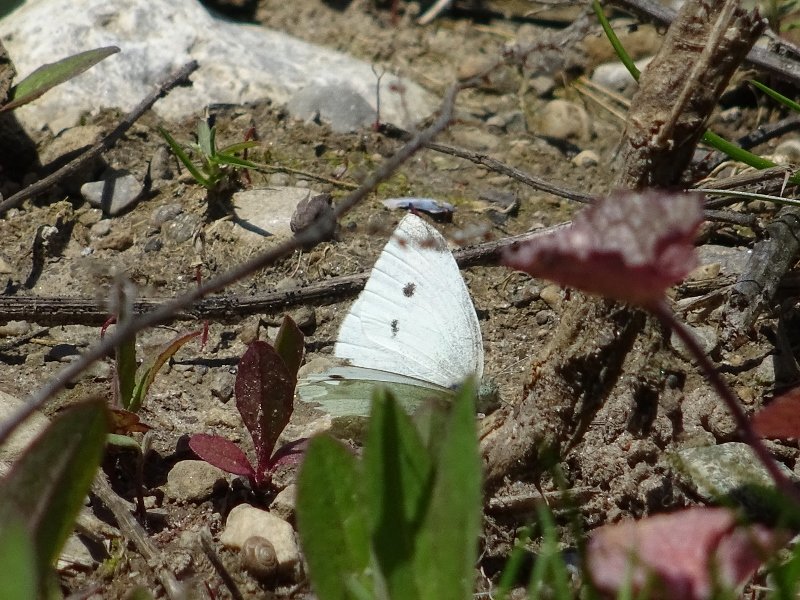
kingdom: Animalia
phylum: Arthropoda
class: Insecta
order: Lepidoptera
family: Pieridae
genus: Pieris
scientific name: Pieris rapae
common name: Cabbage White
